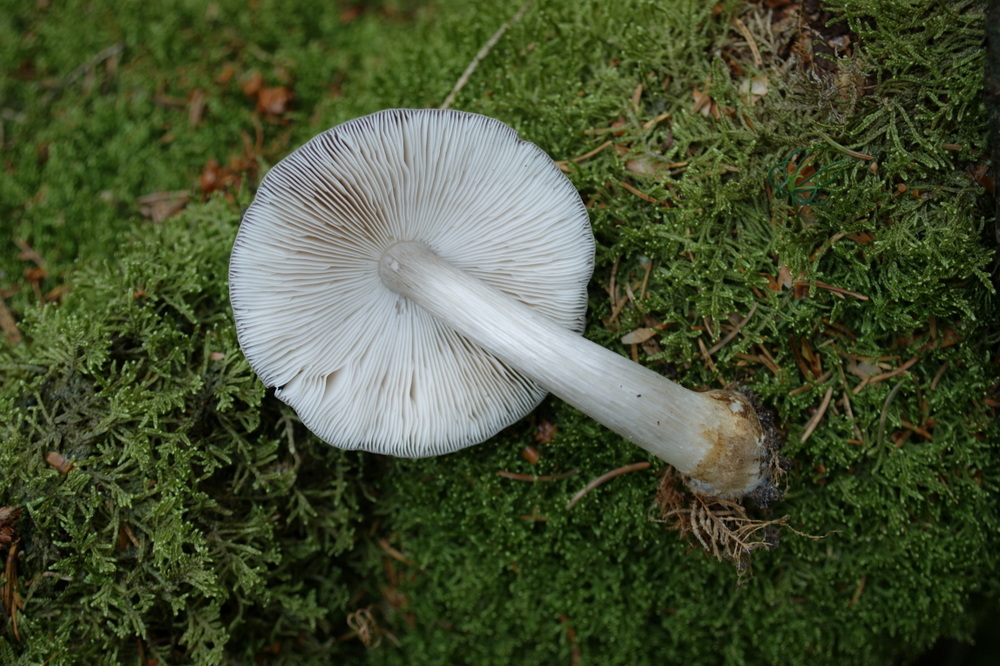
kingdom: Fungi
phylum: Basidiomycota
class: Agaricomycetes
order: Agaricales
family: Pluteaceae
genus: Pluteus
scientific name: Pluteus pouzarianus
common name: plantage-skærmhat
